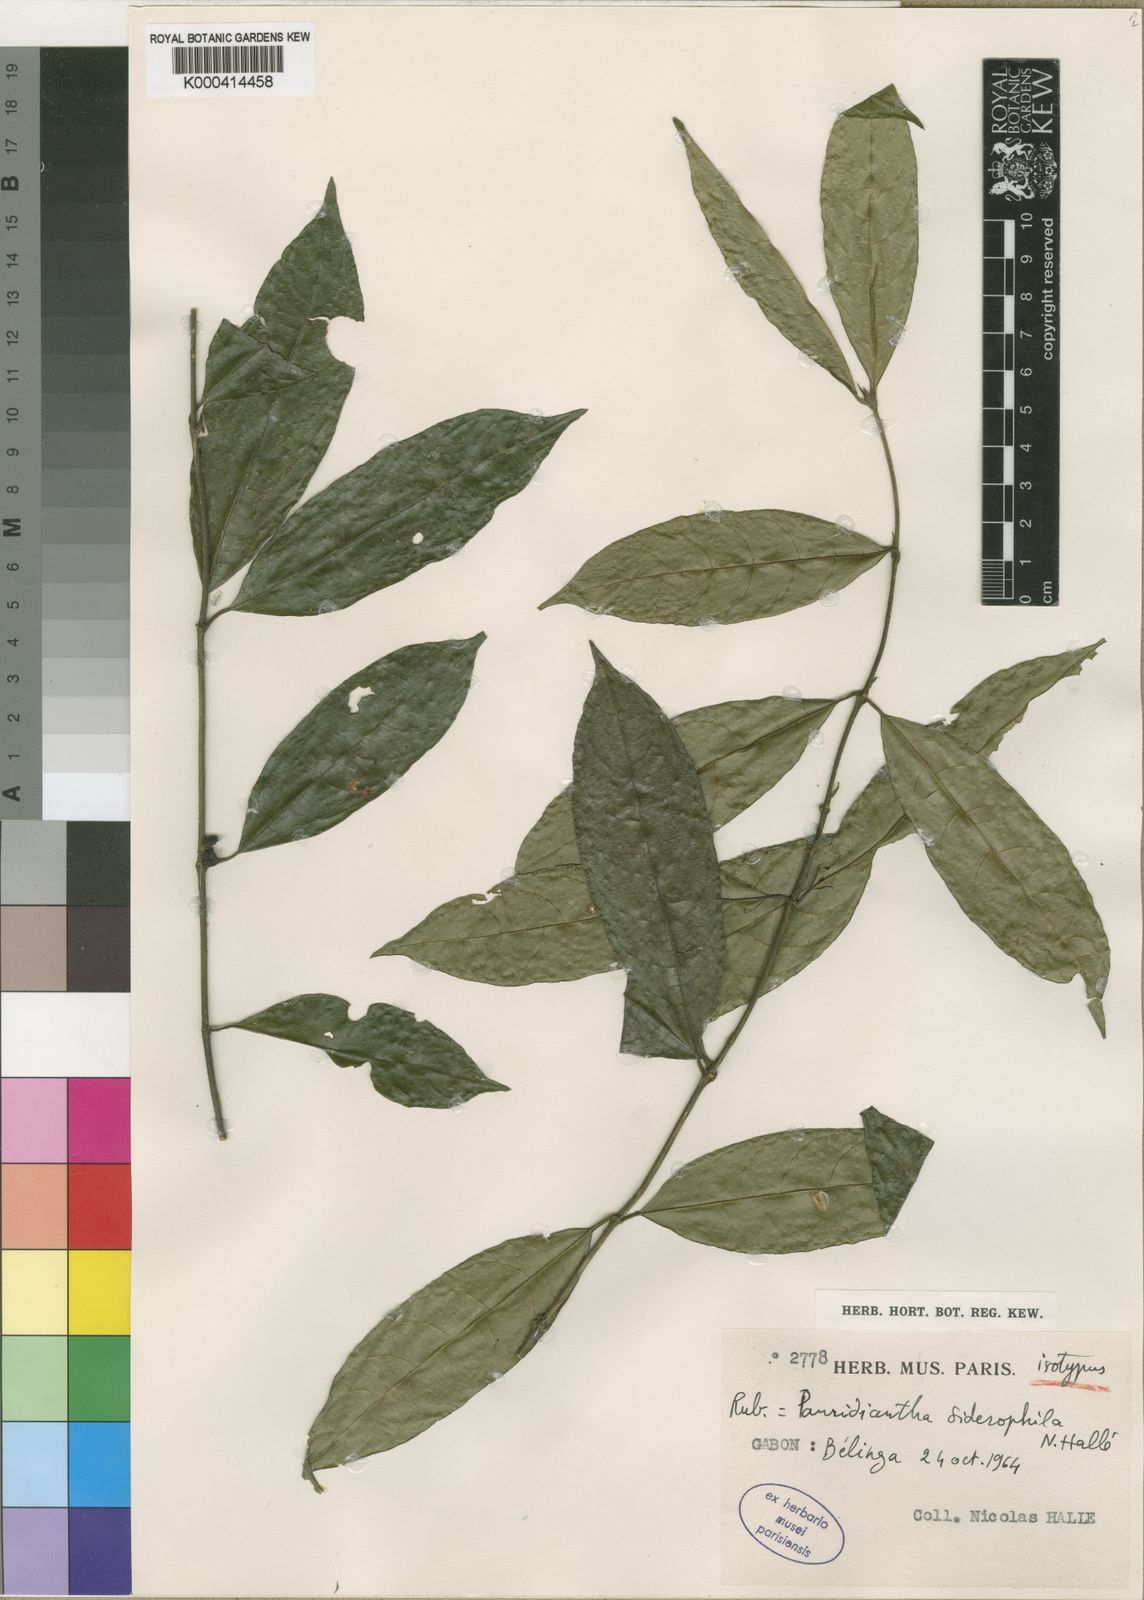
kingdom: Plantae
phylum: Tracheophyta
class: Magnoliopsida
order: Gentianales
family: Rubiaceae
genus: Pauridiantha
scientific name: Pauridiantha
